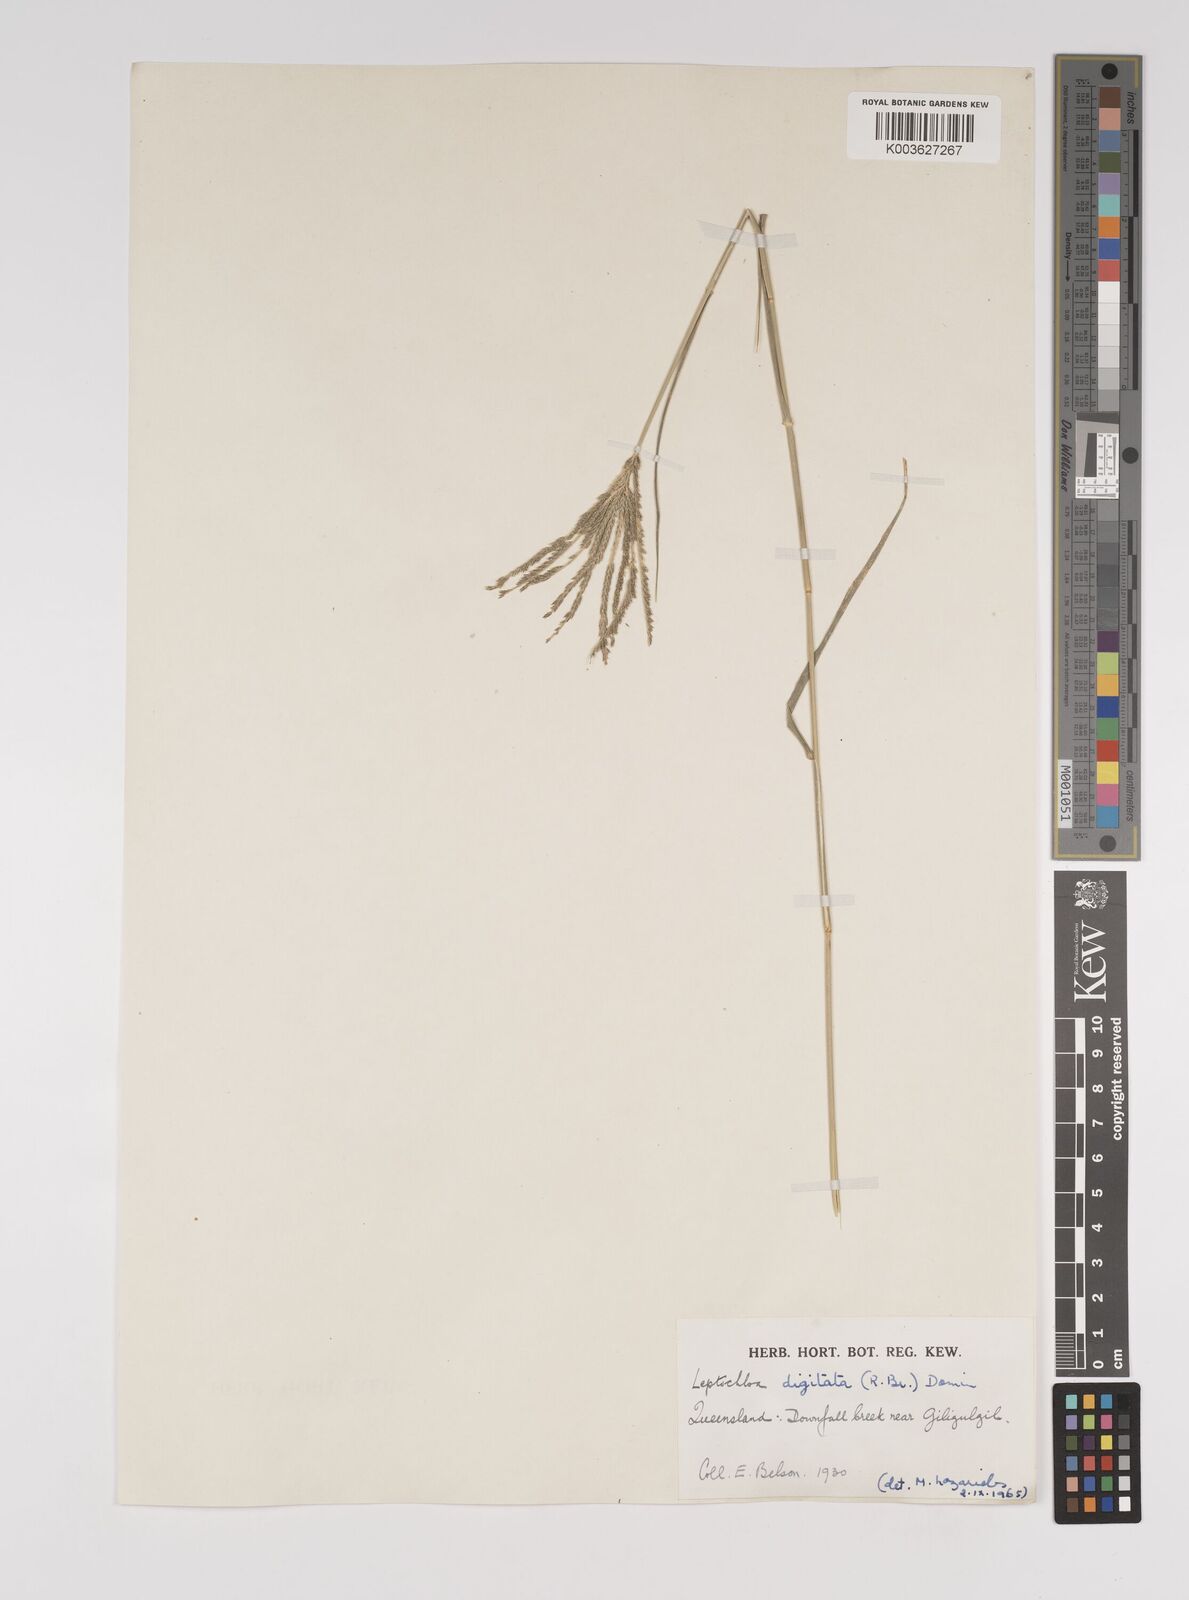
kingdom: Plantae
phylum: Tracheophyta
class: Liliopsida
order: Poales
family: Poaceae
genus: Leptochloa
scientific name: Leptochloa digitata
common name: Finger sprangletop
